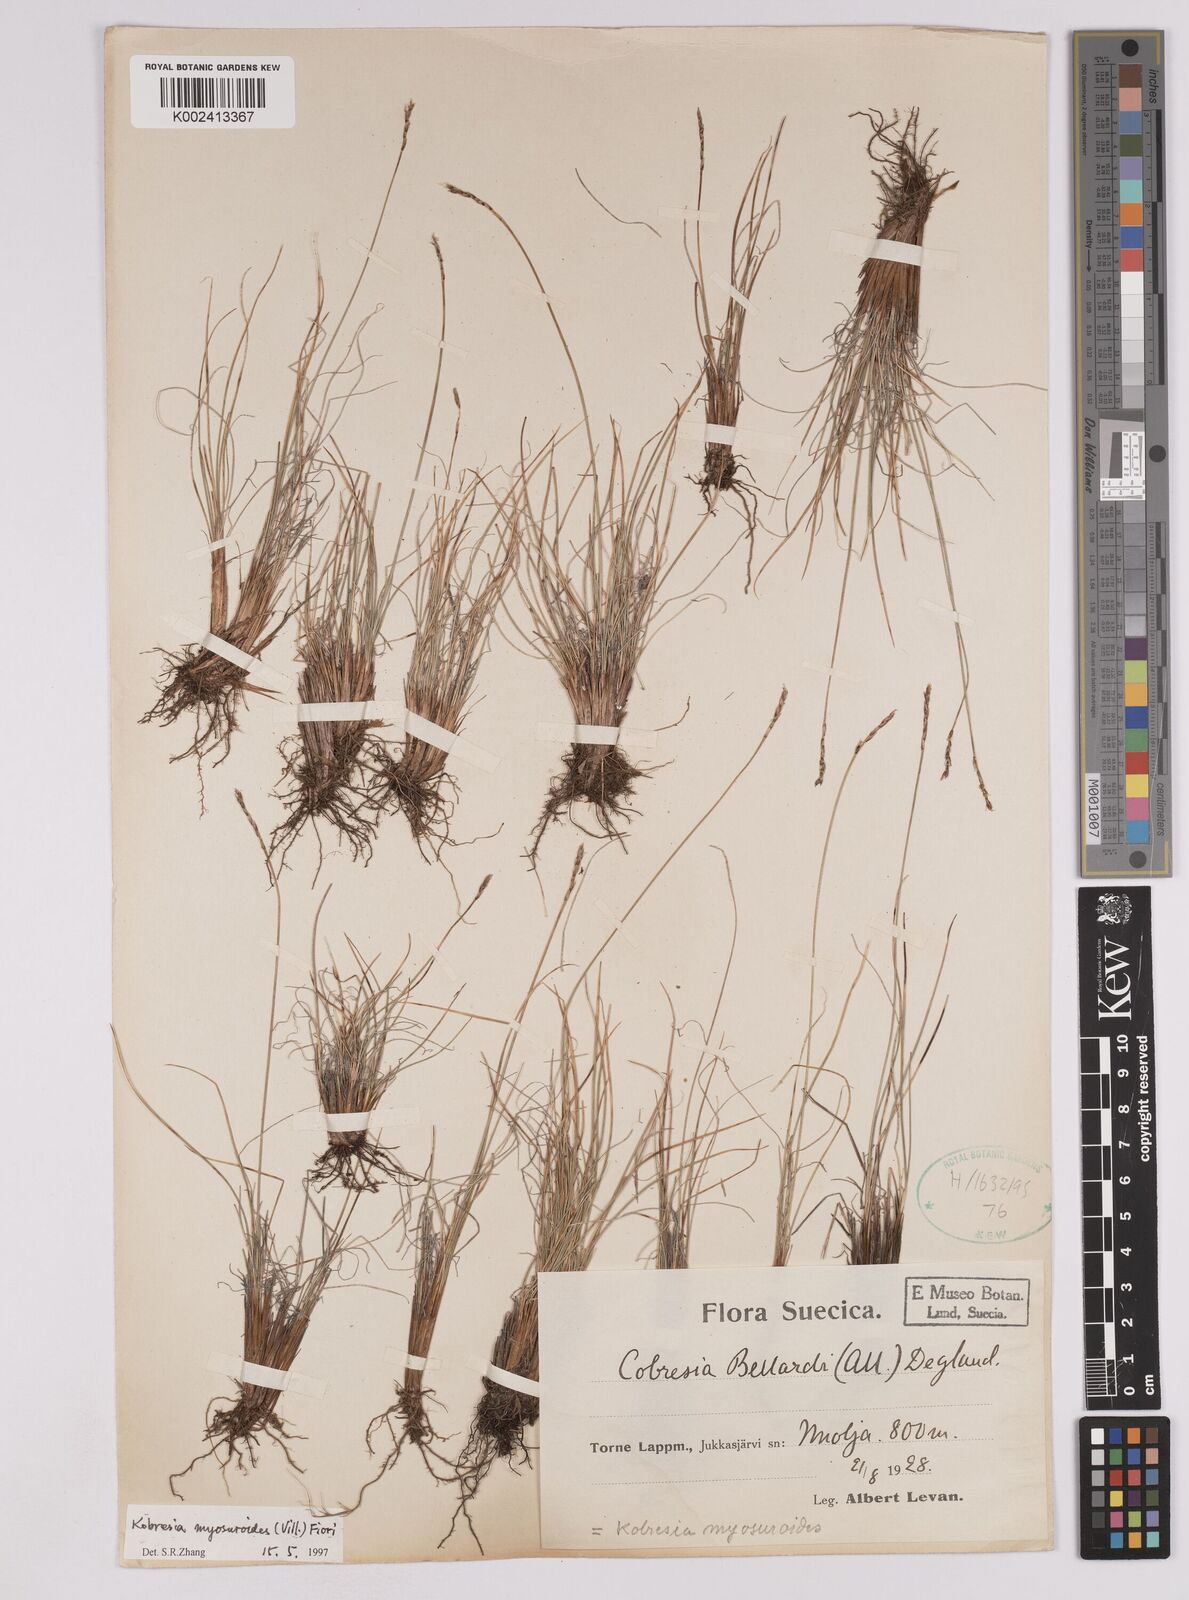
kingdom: Plantae
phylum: Tracheophyta
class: Liliopsida
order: Poales
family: Cyperaceae
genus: Carex
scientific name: Carex myosuroides
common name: Bellard's bog sedge
